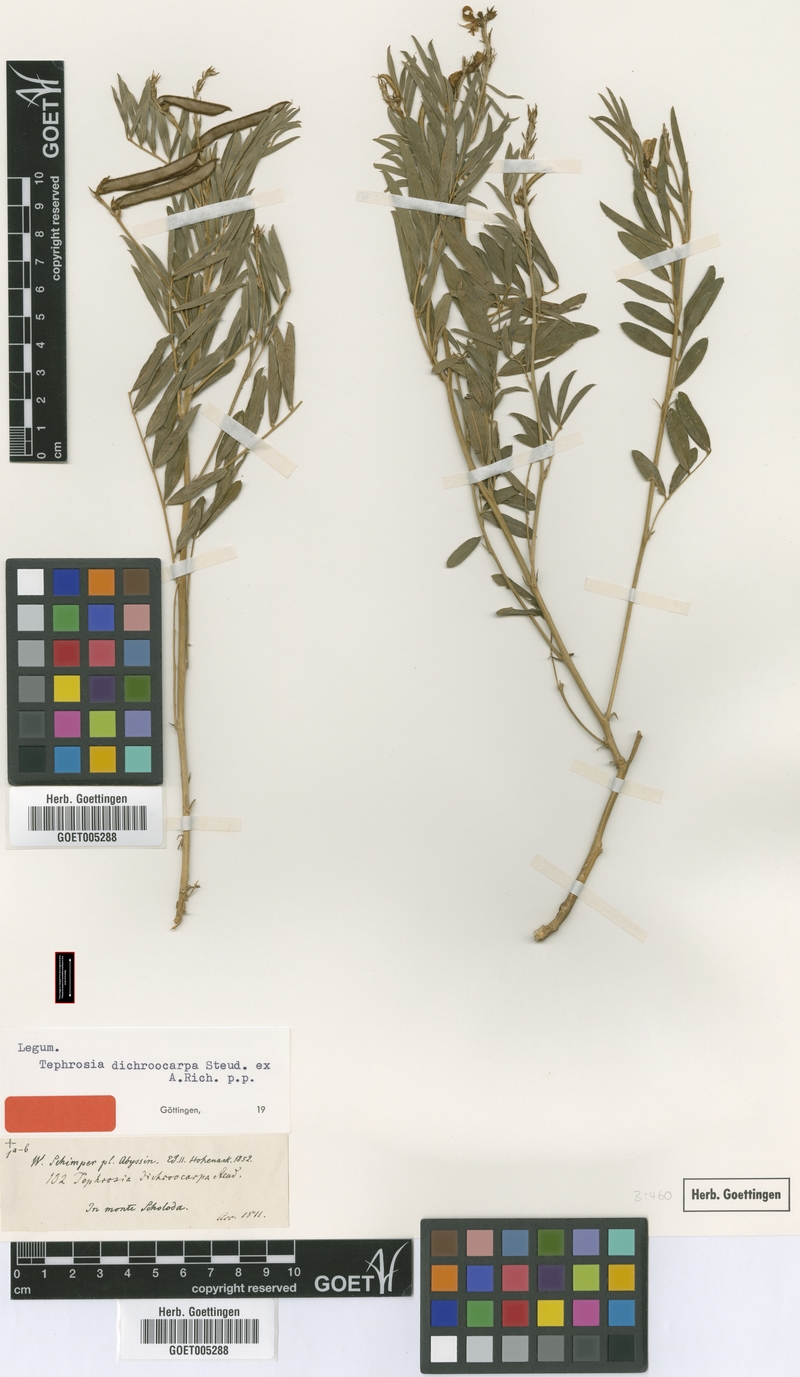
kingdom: Plantae
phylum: Tracheophyta
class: Magnoliopsida
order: Fabales
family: Fabaceae
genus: Tephrosia
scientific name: Tephrosia dichroocarpa
